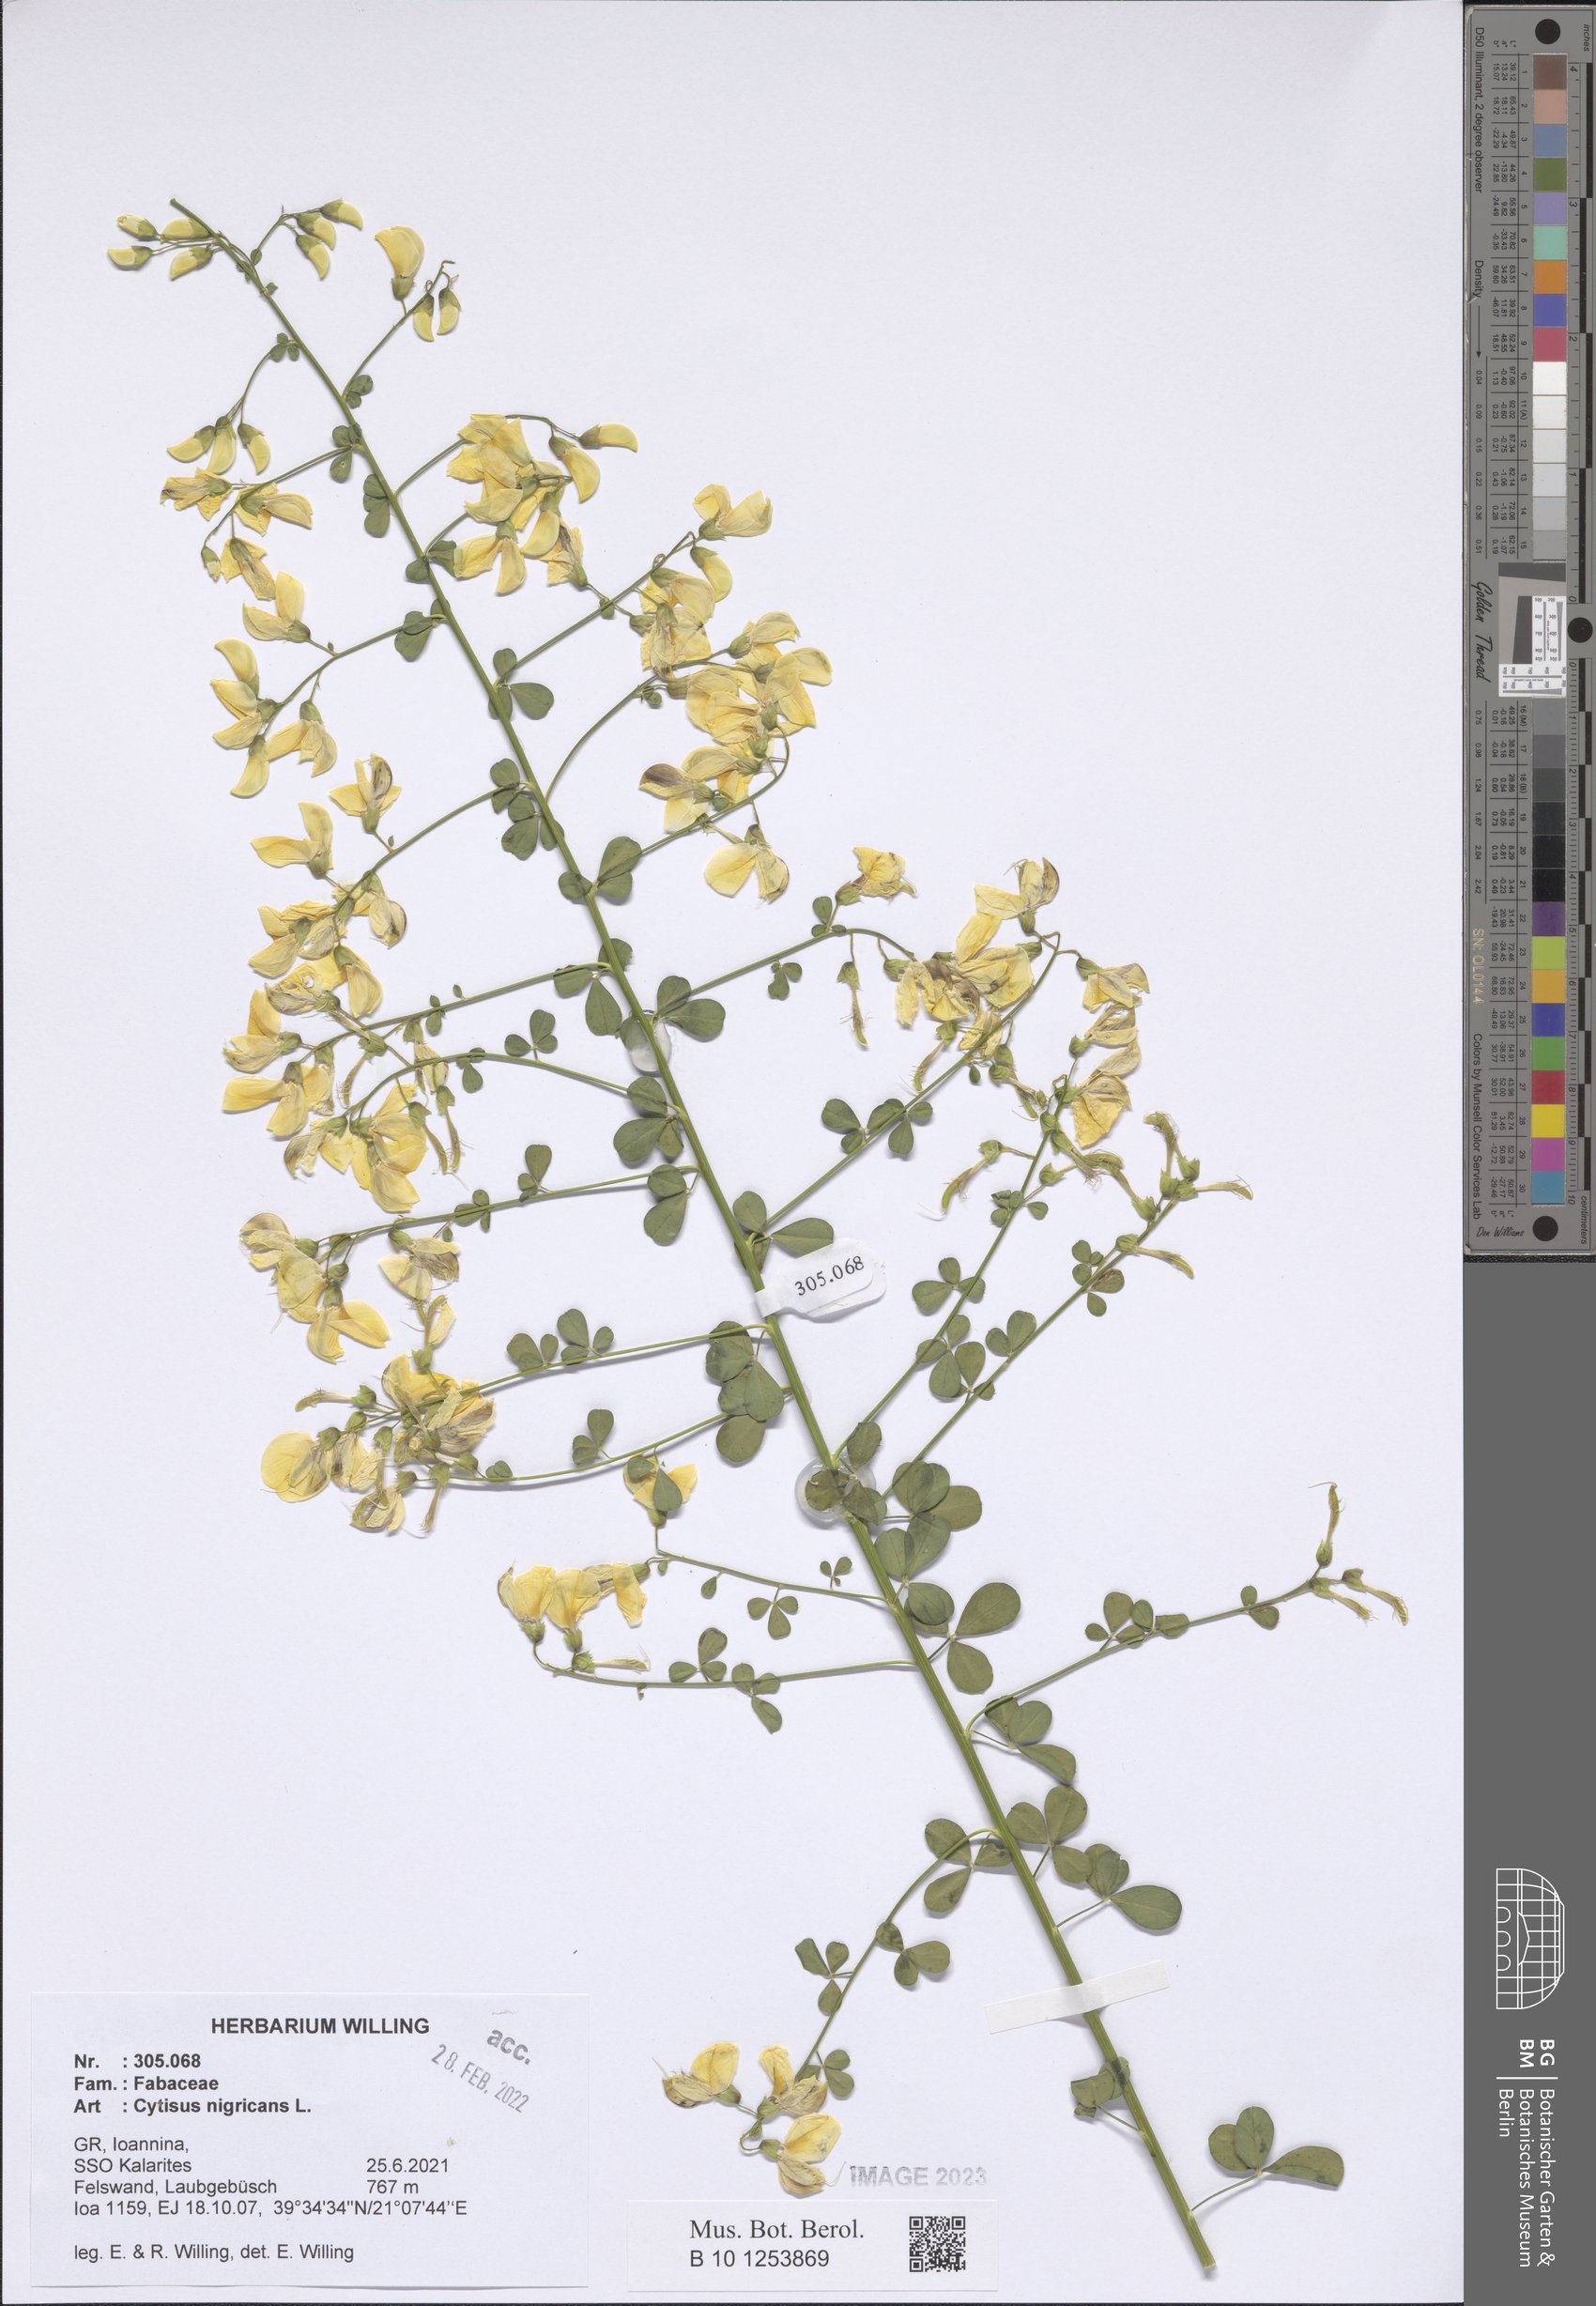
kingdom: Plantae
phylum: Tracheophyta
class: Magnoliopsida
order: Fabales
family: Fabaceae
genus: Cytisus
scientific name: Cytisus nigricans
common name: Black broom
